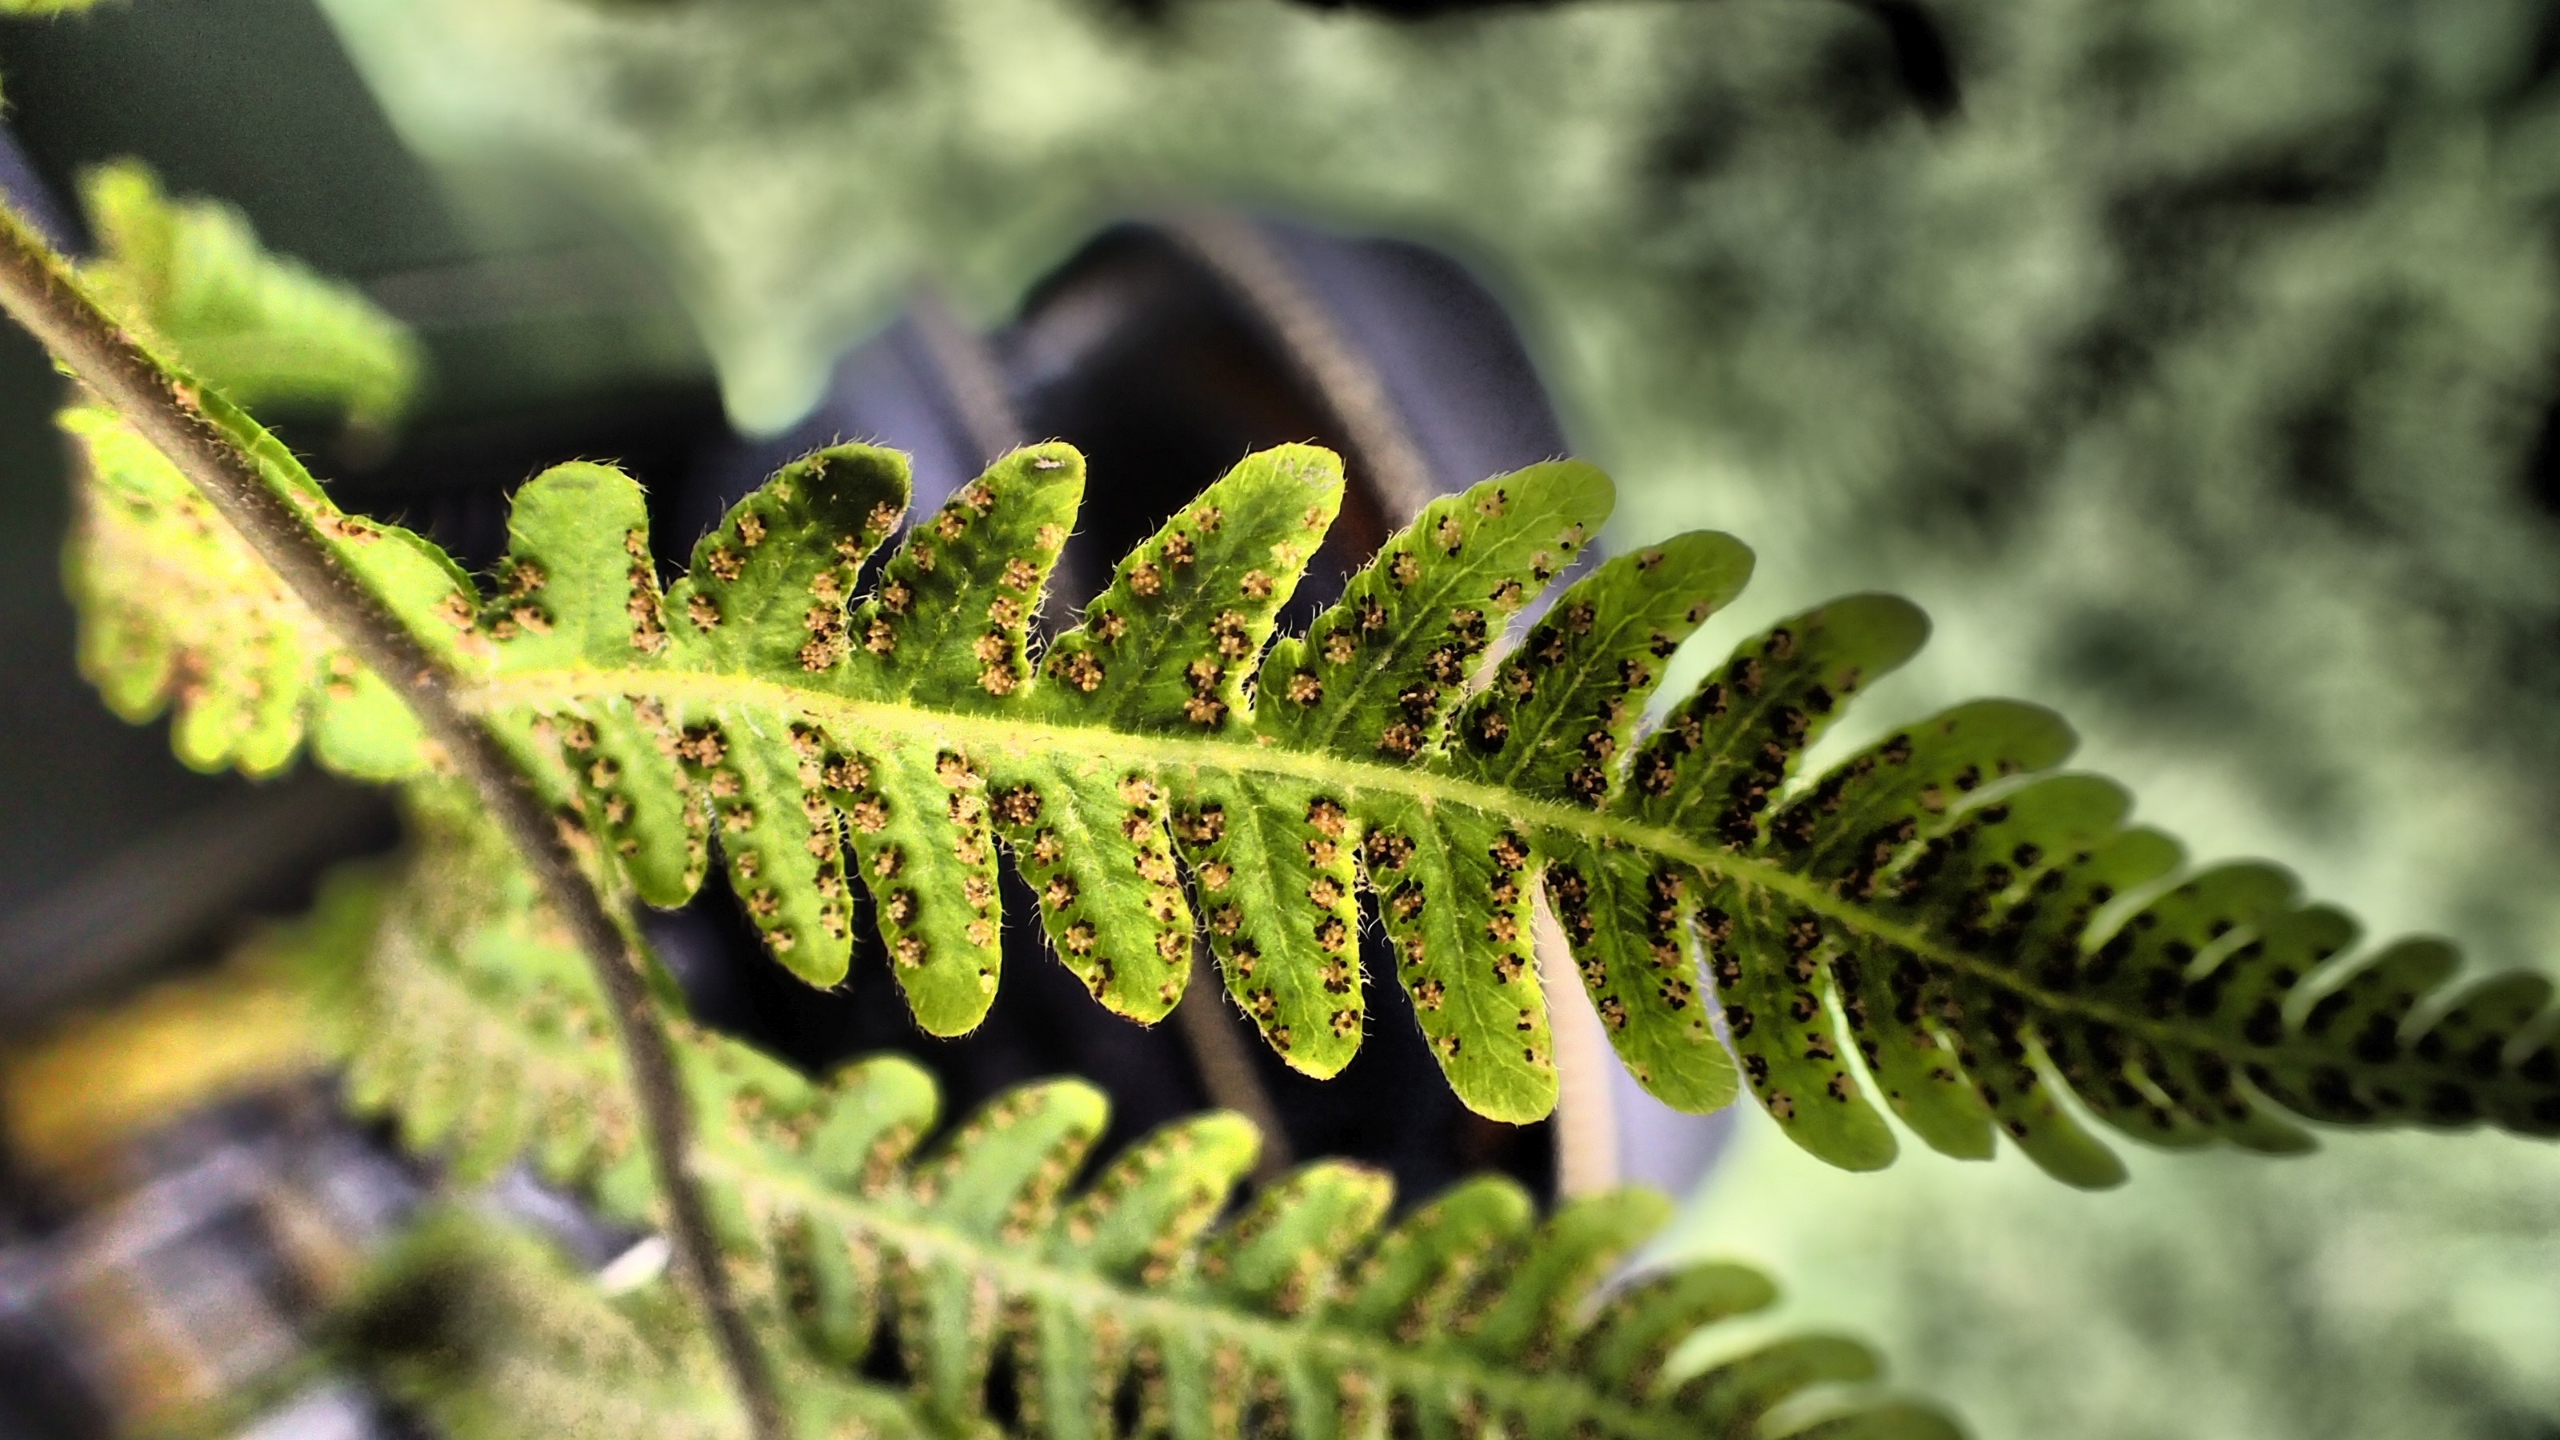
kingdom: Plantae
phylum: Tracheophyta
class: Polypodiopsida
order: Polypodiales
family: Thelypteridaceae
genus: Phegopteris
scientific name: Phegopteris connectilis
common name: Dunet egebregne
